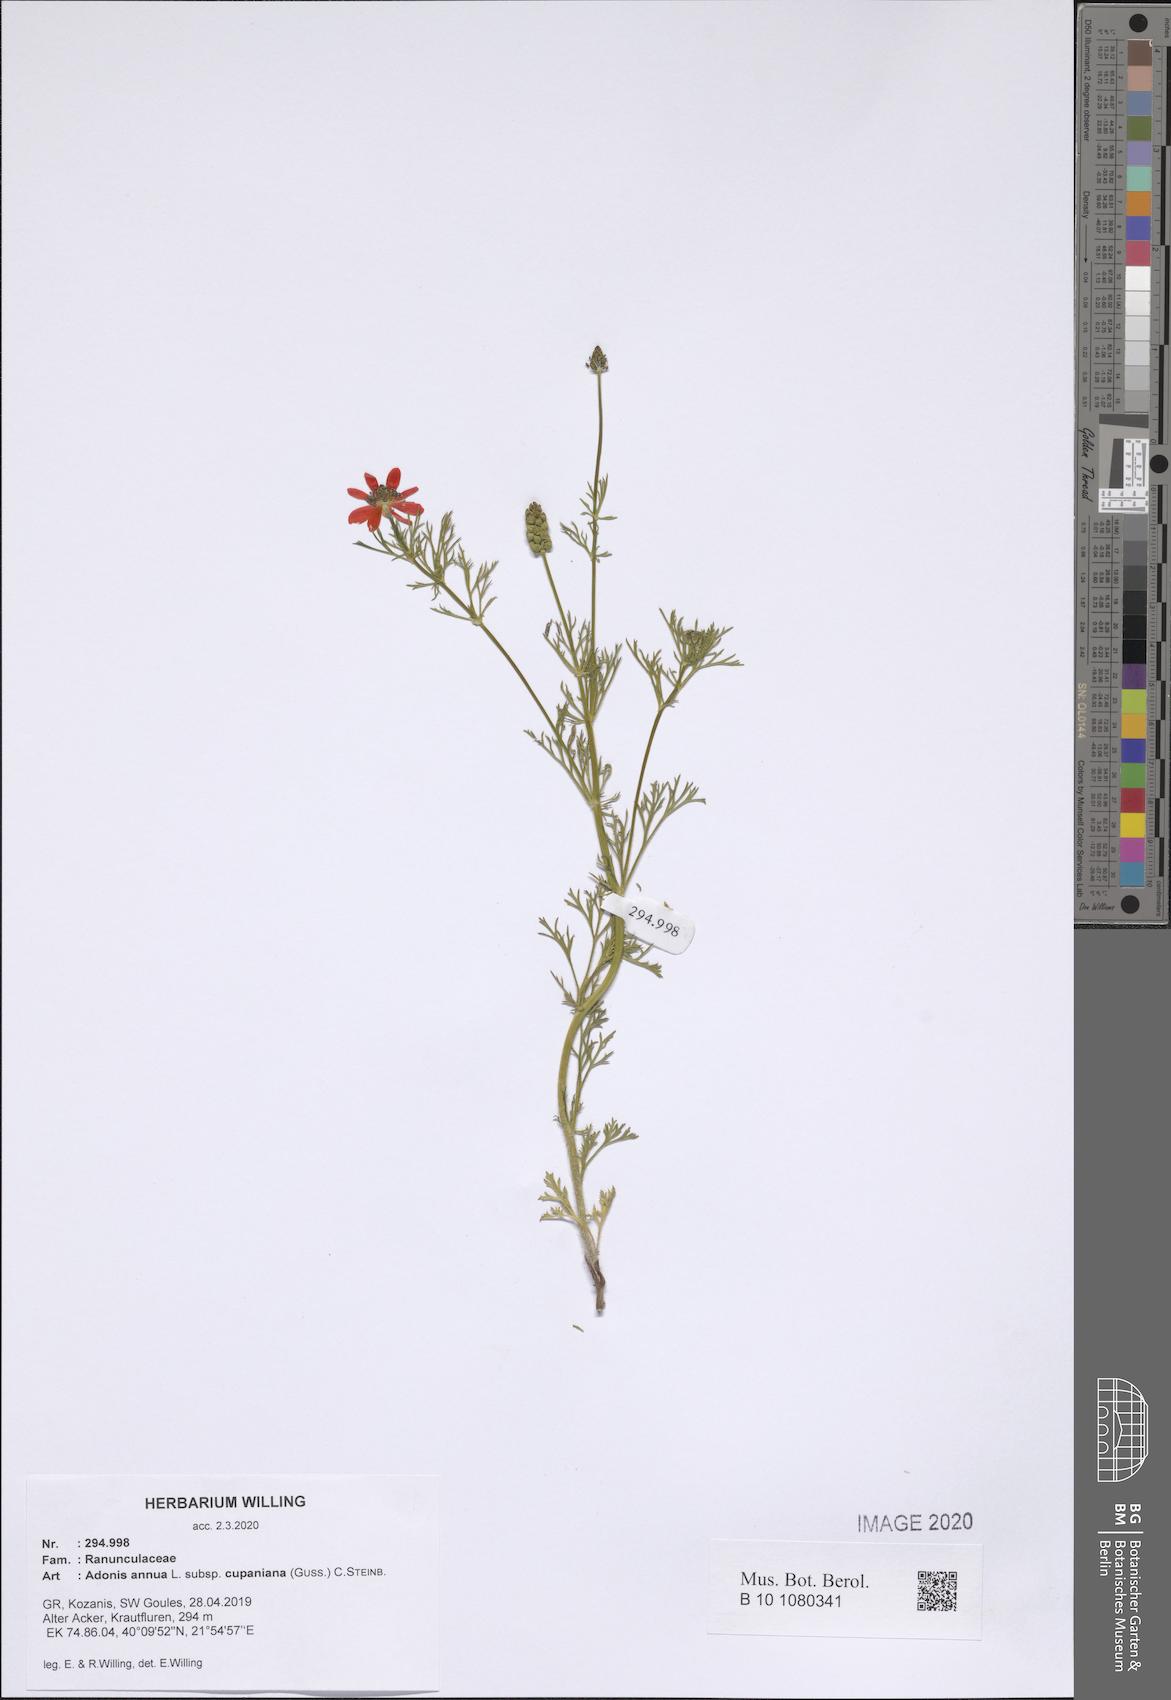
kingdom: Plantae
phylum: Tracheophyta
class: Magnoliopsida
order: Ranunculales
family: Ranunculaceae
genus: Adonis
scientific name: Adonis annua
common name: Pheasant's-eye
